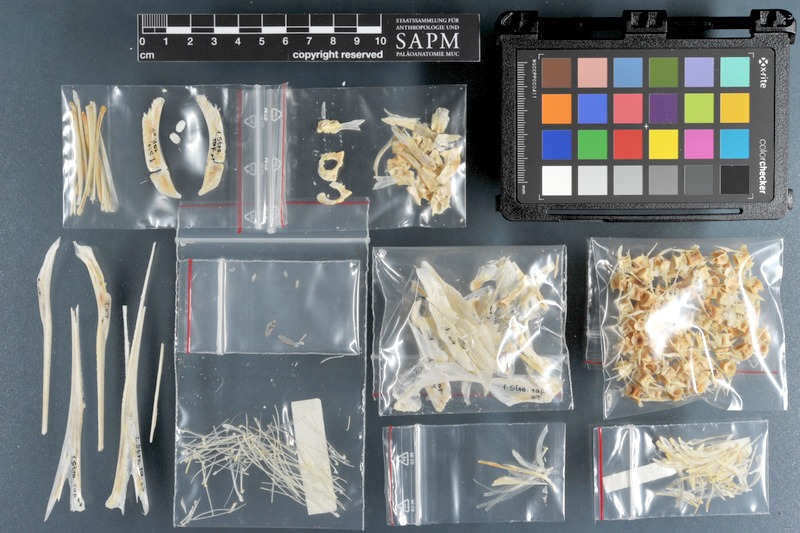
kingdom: Animalia
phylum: Chordata
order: Beloniformes
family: Belonidae
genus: Tylosurus
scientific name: Tylosurus crocodilus
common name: Houndfish
